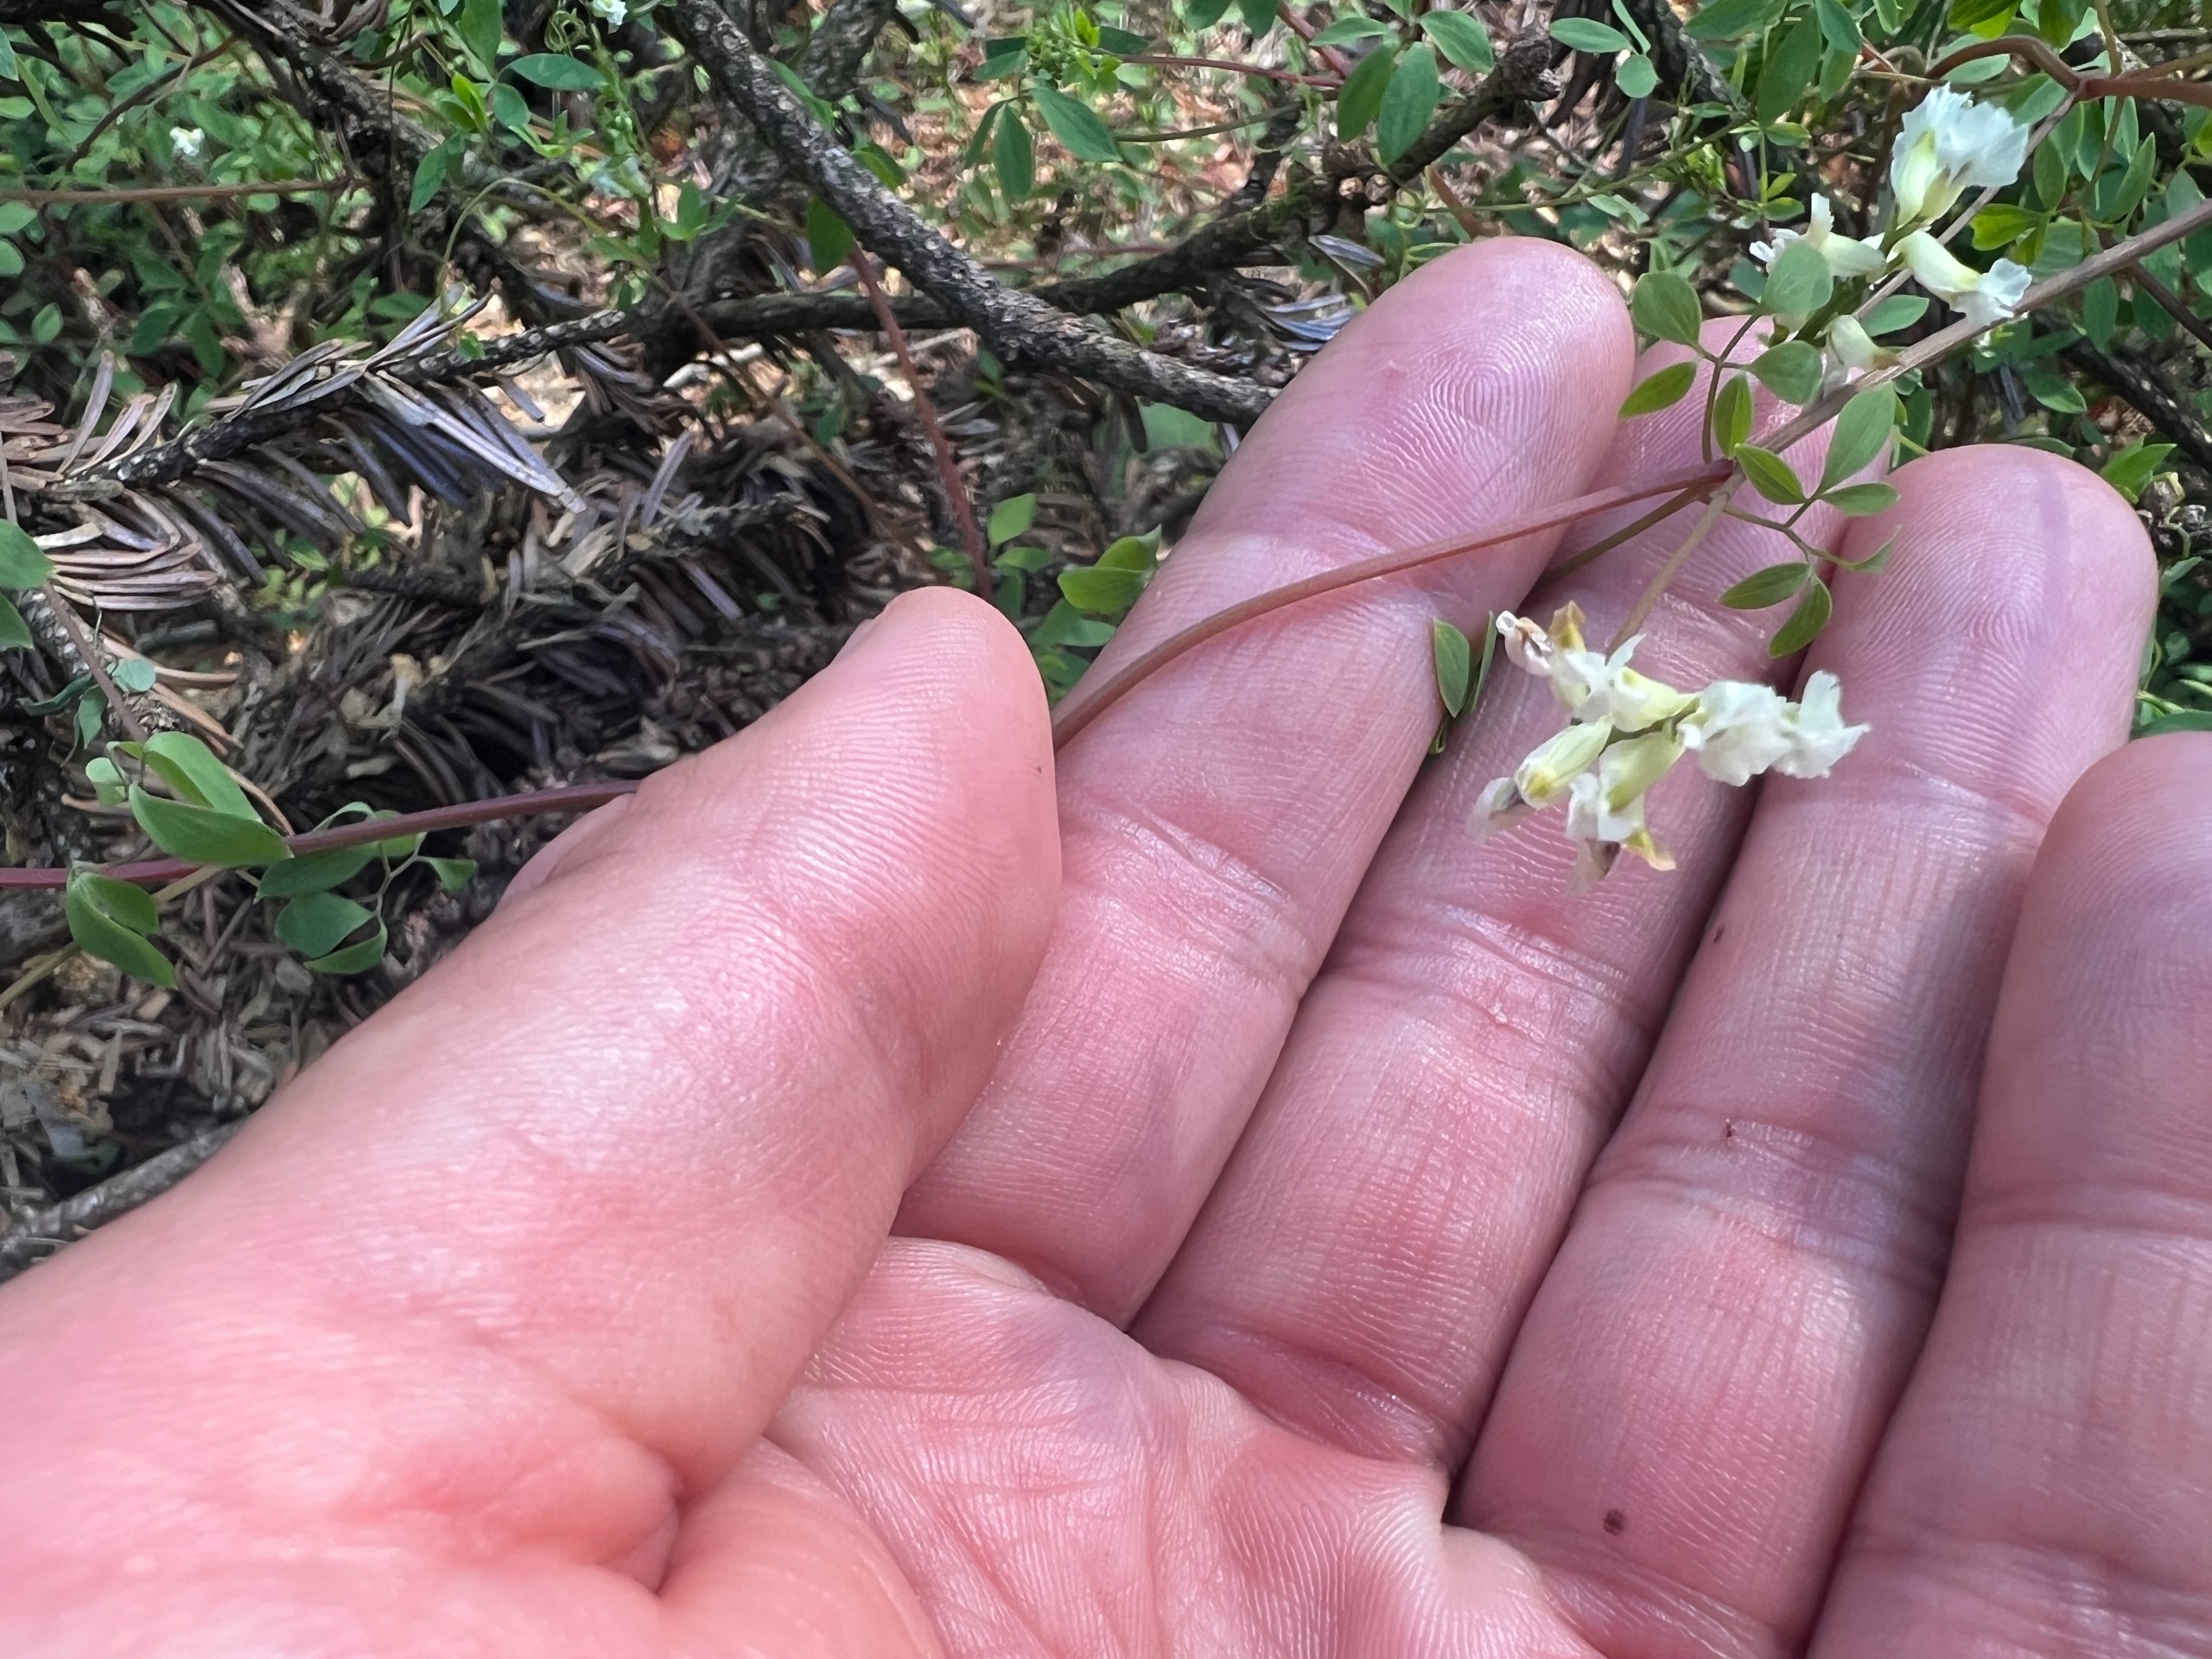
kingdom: Plantae
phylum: Tracheophyta
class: Magnoliopsida
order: Ranunculales
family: Papaveraceae
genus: Ceratocapnos
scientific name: Ceratocapnos claviculata
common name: Klatrende lærkespore
